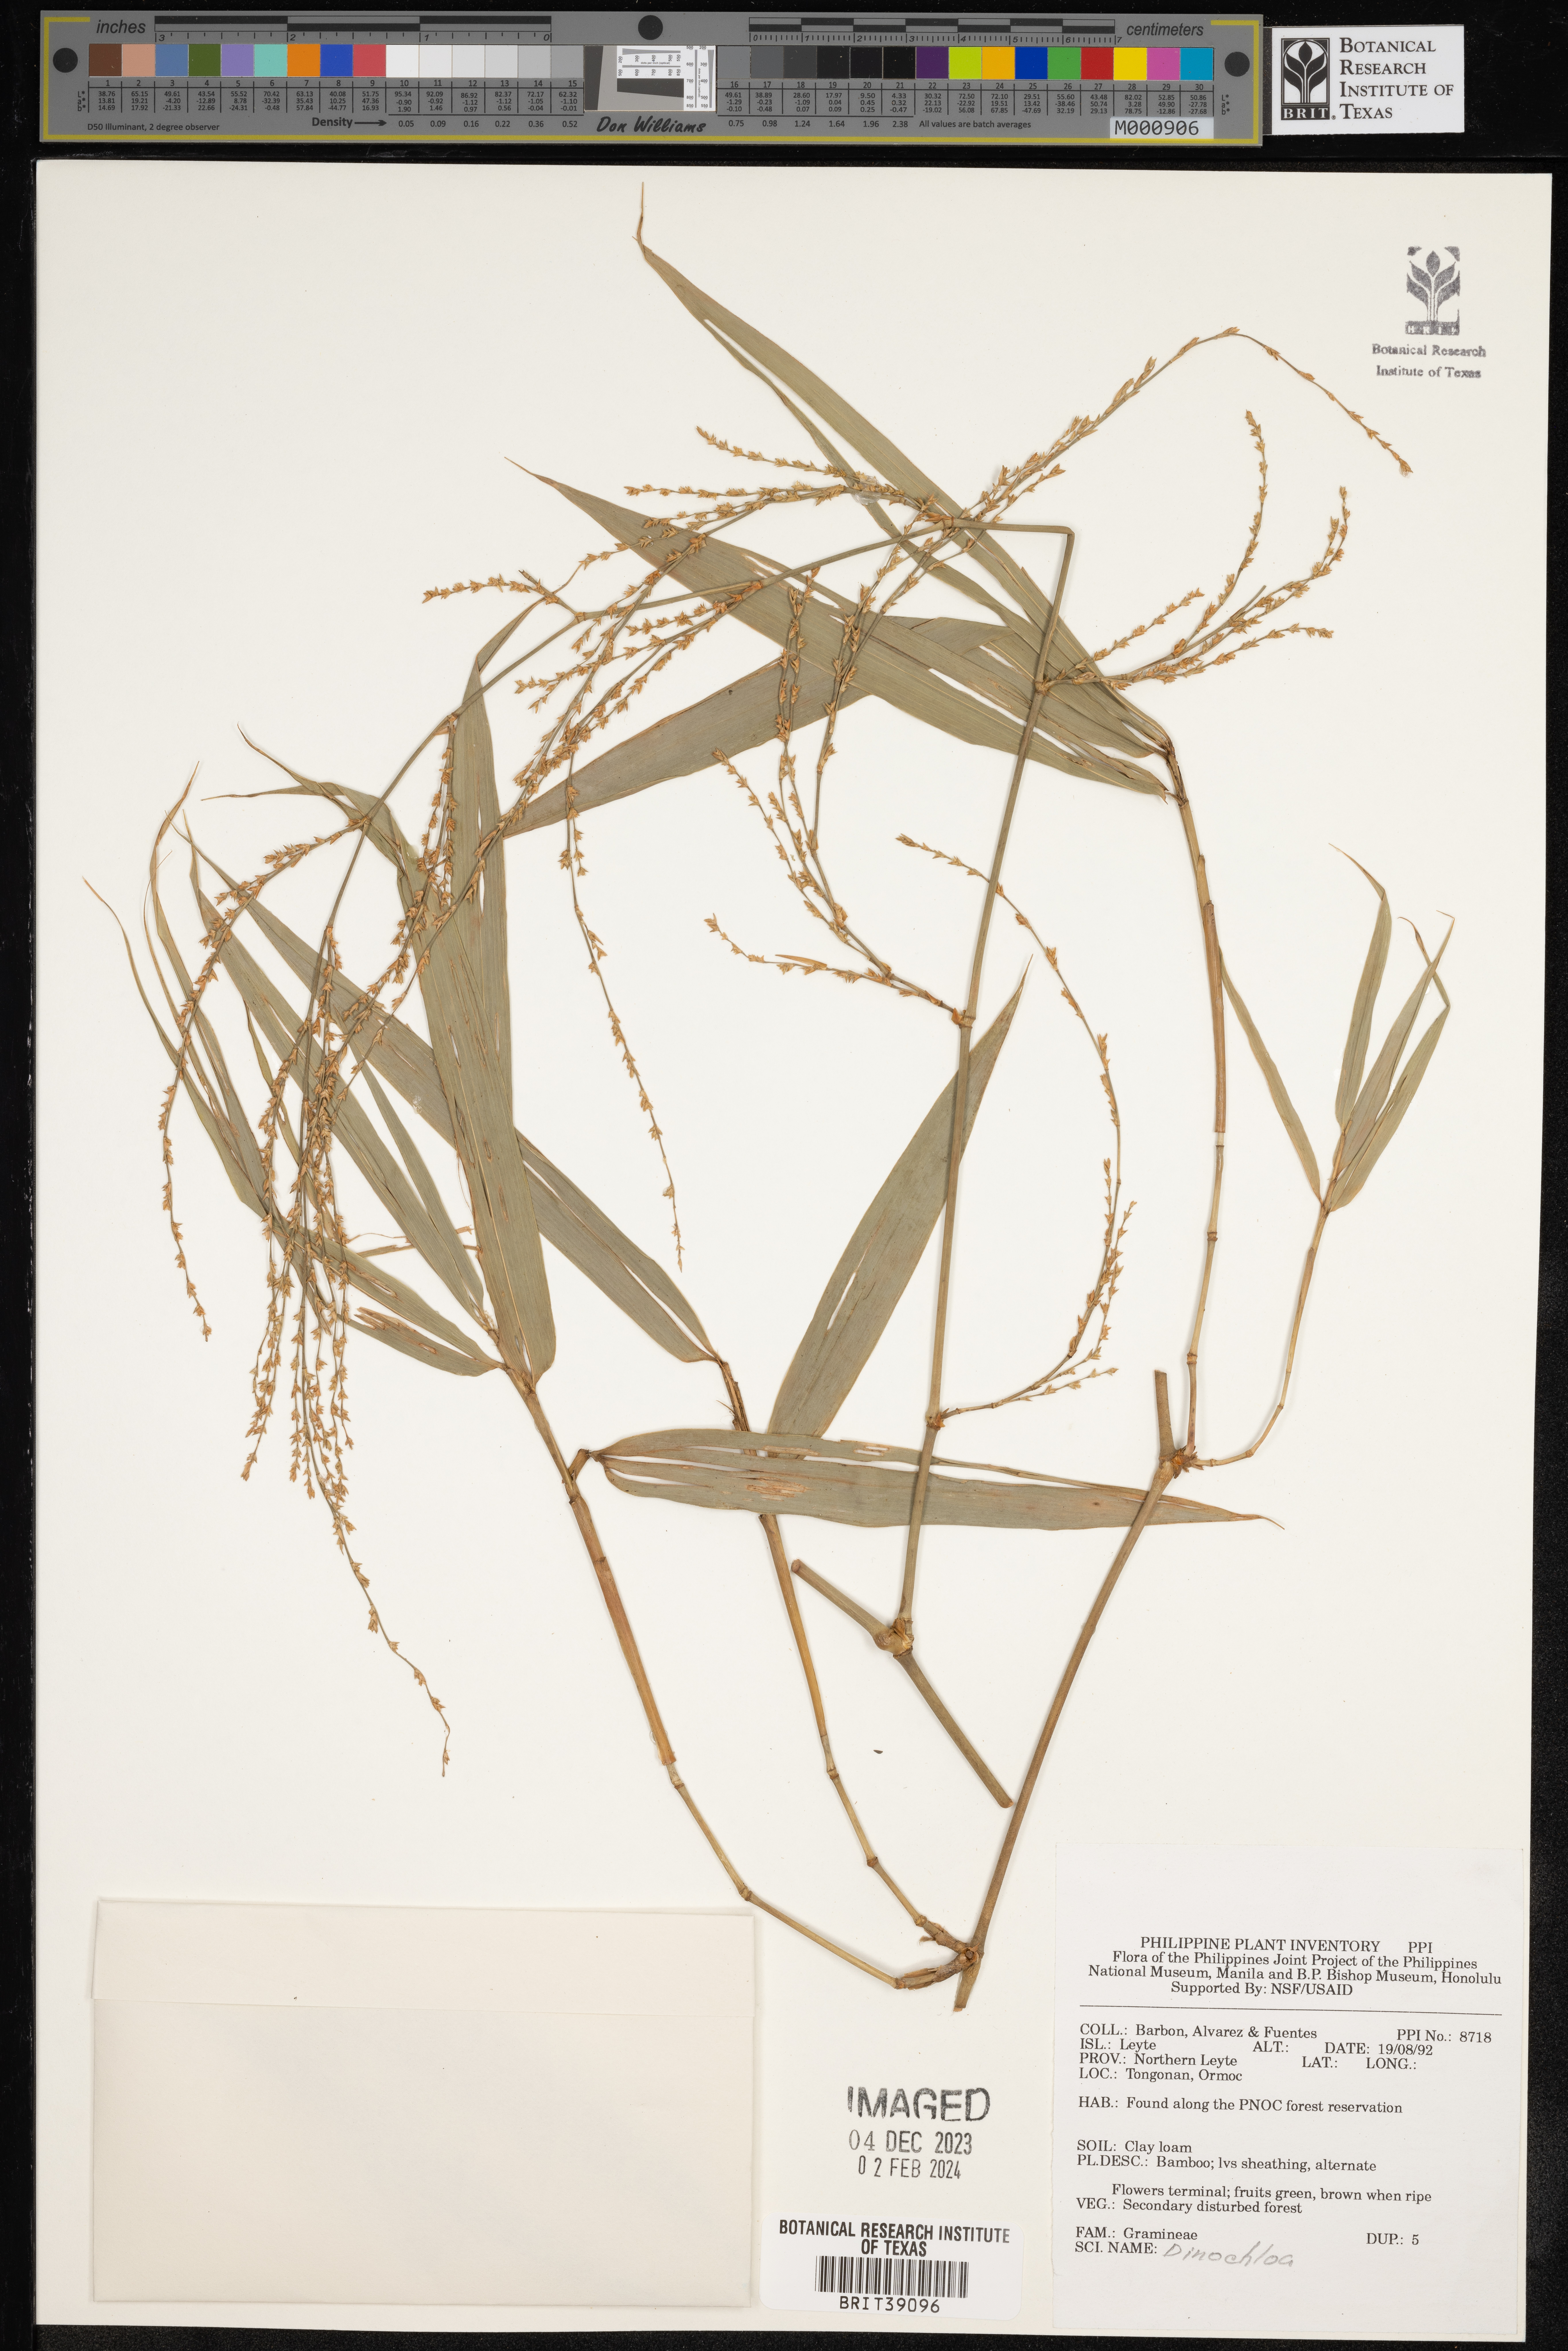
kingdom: Plantae
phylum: Tracheophyta
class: Liliopsida
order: Poales
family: Poaceae
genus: Dinochloa
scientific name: Dinochloa
